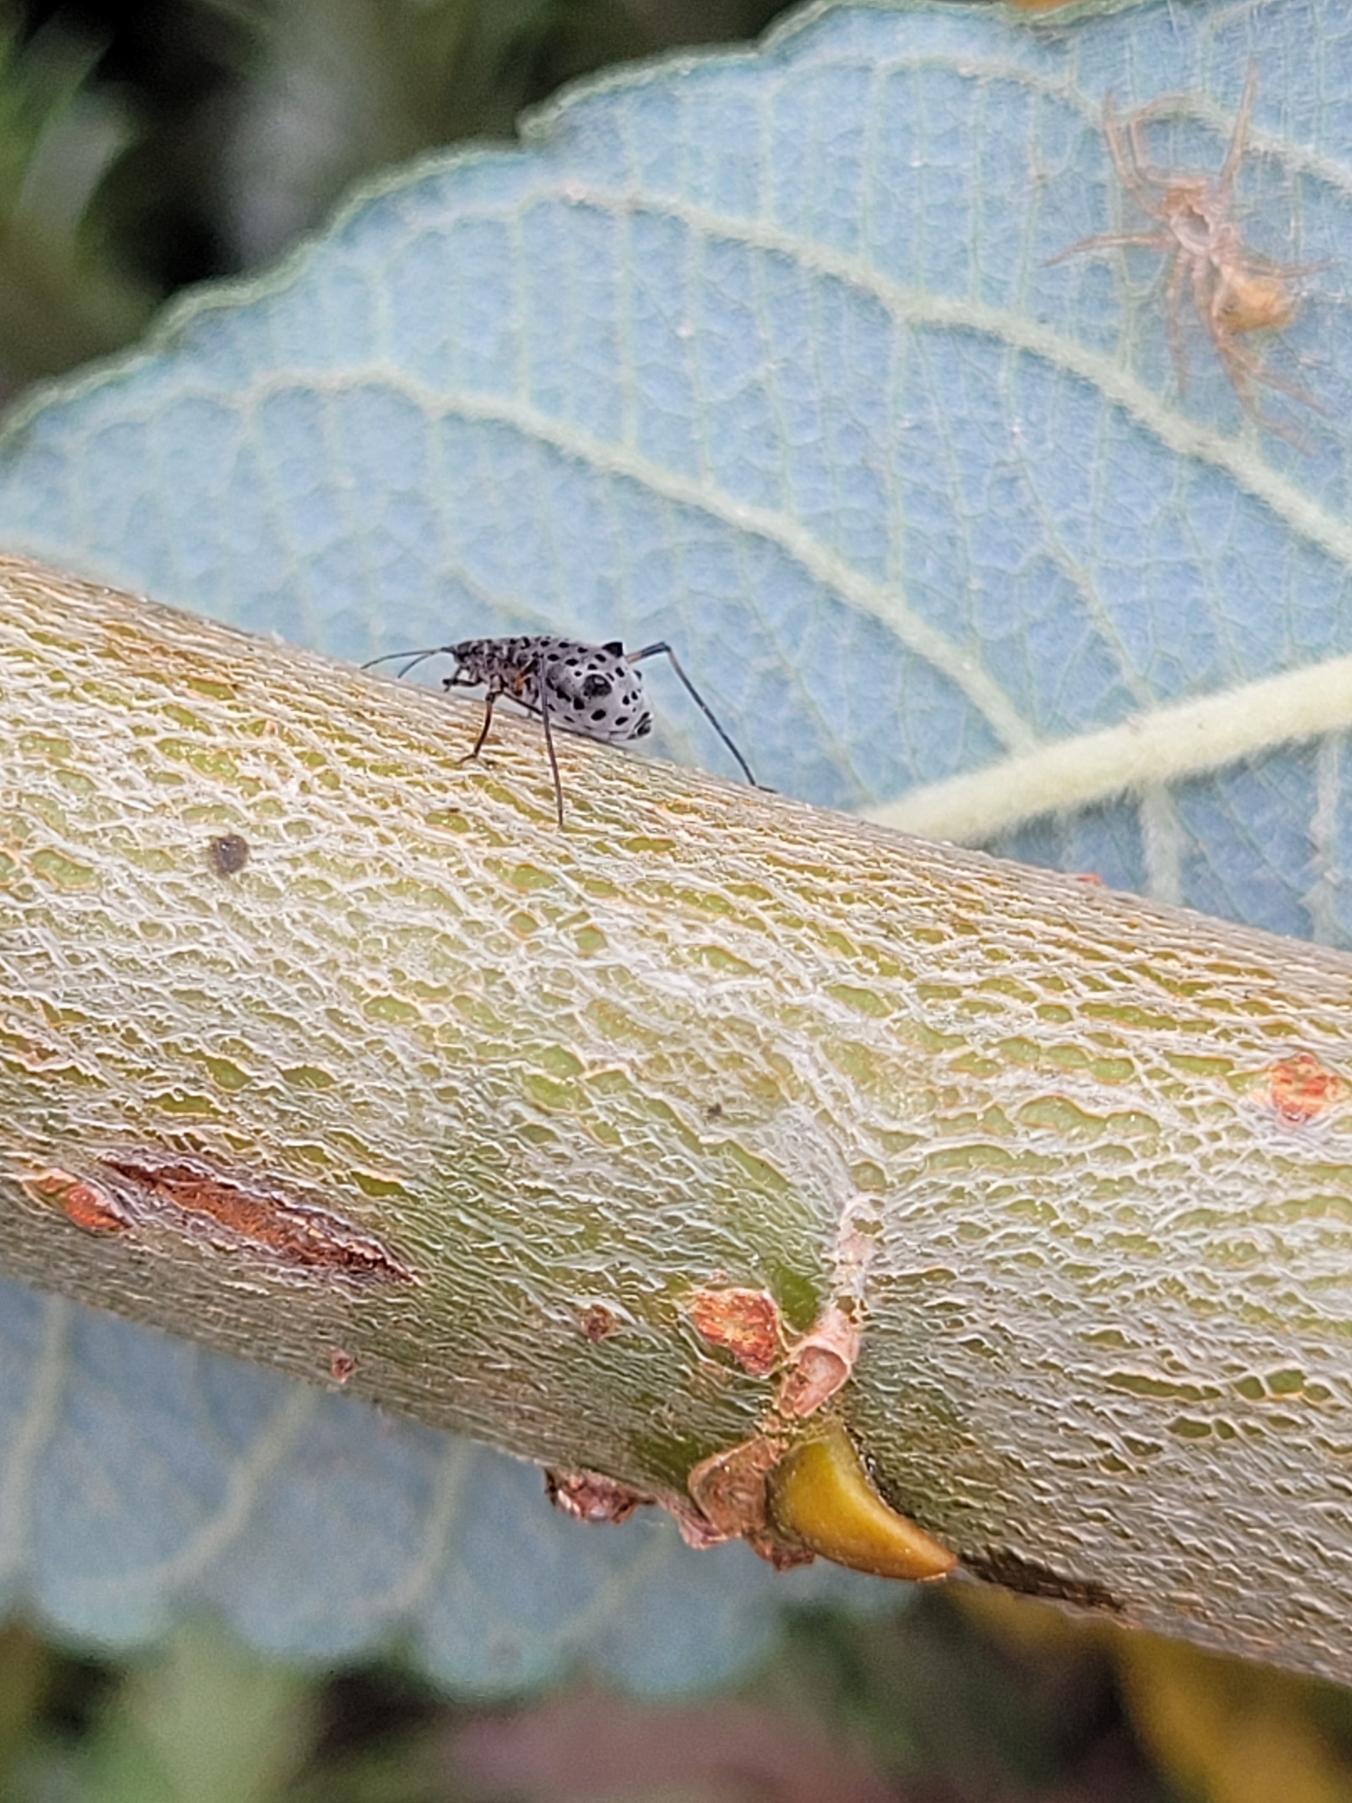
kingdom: Animalia
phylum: Arthropoda
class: Insecta
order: Hemiptera
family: Aphididae
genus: Tuberolachnus
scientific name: Tuberolachnus salignus
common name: Pilegrenbladlus
